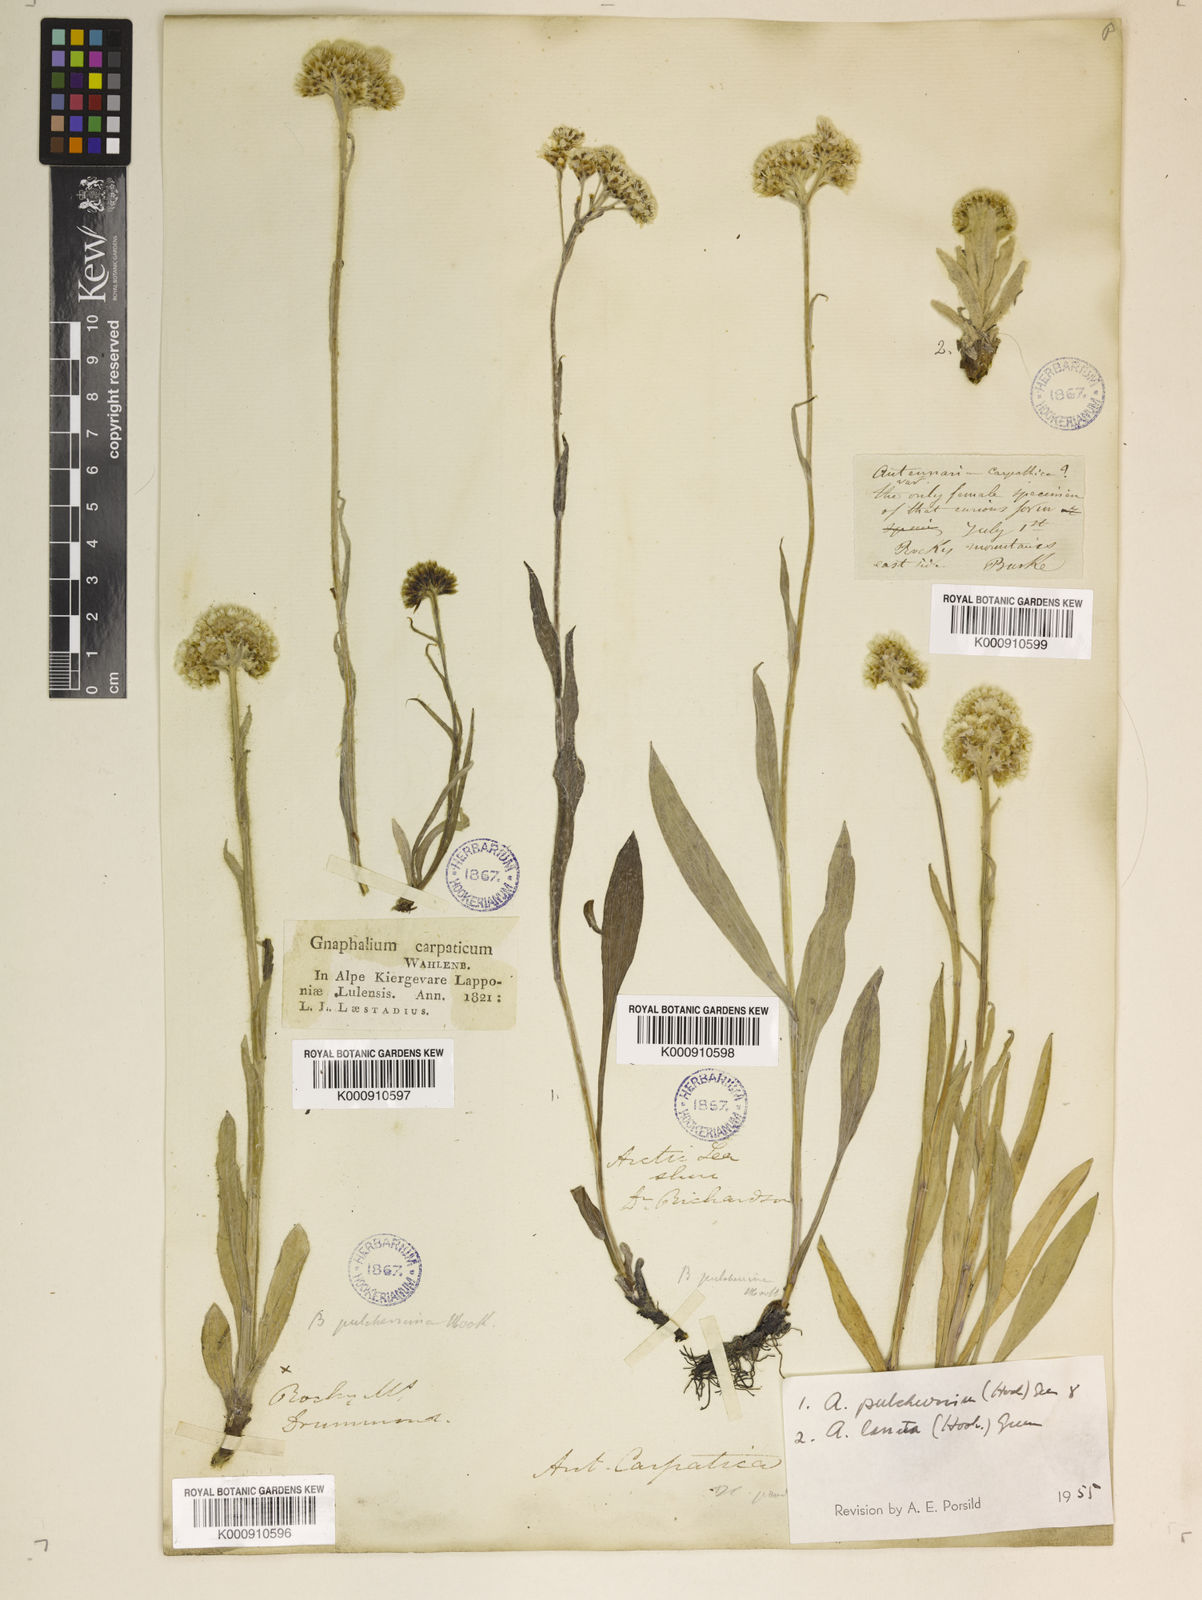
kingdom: Plantae
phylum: Tracheophyta
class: Magnoliopsida
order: Asterales
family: Asteraceae
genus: Antennaria
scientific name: Antennaria carpatica
